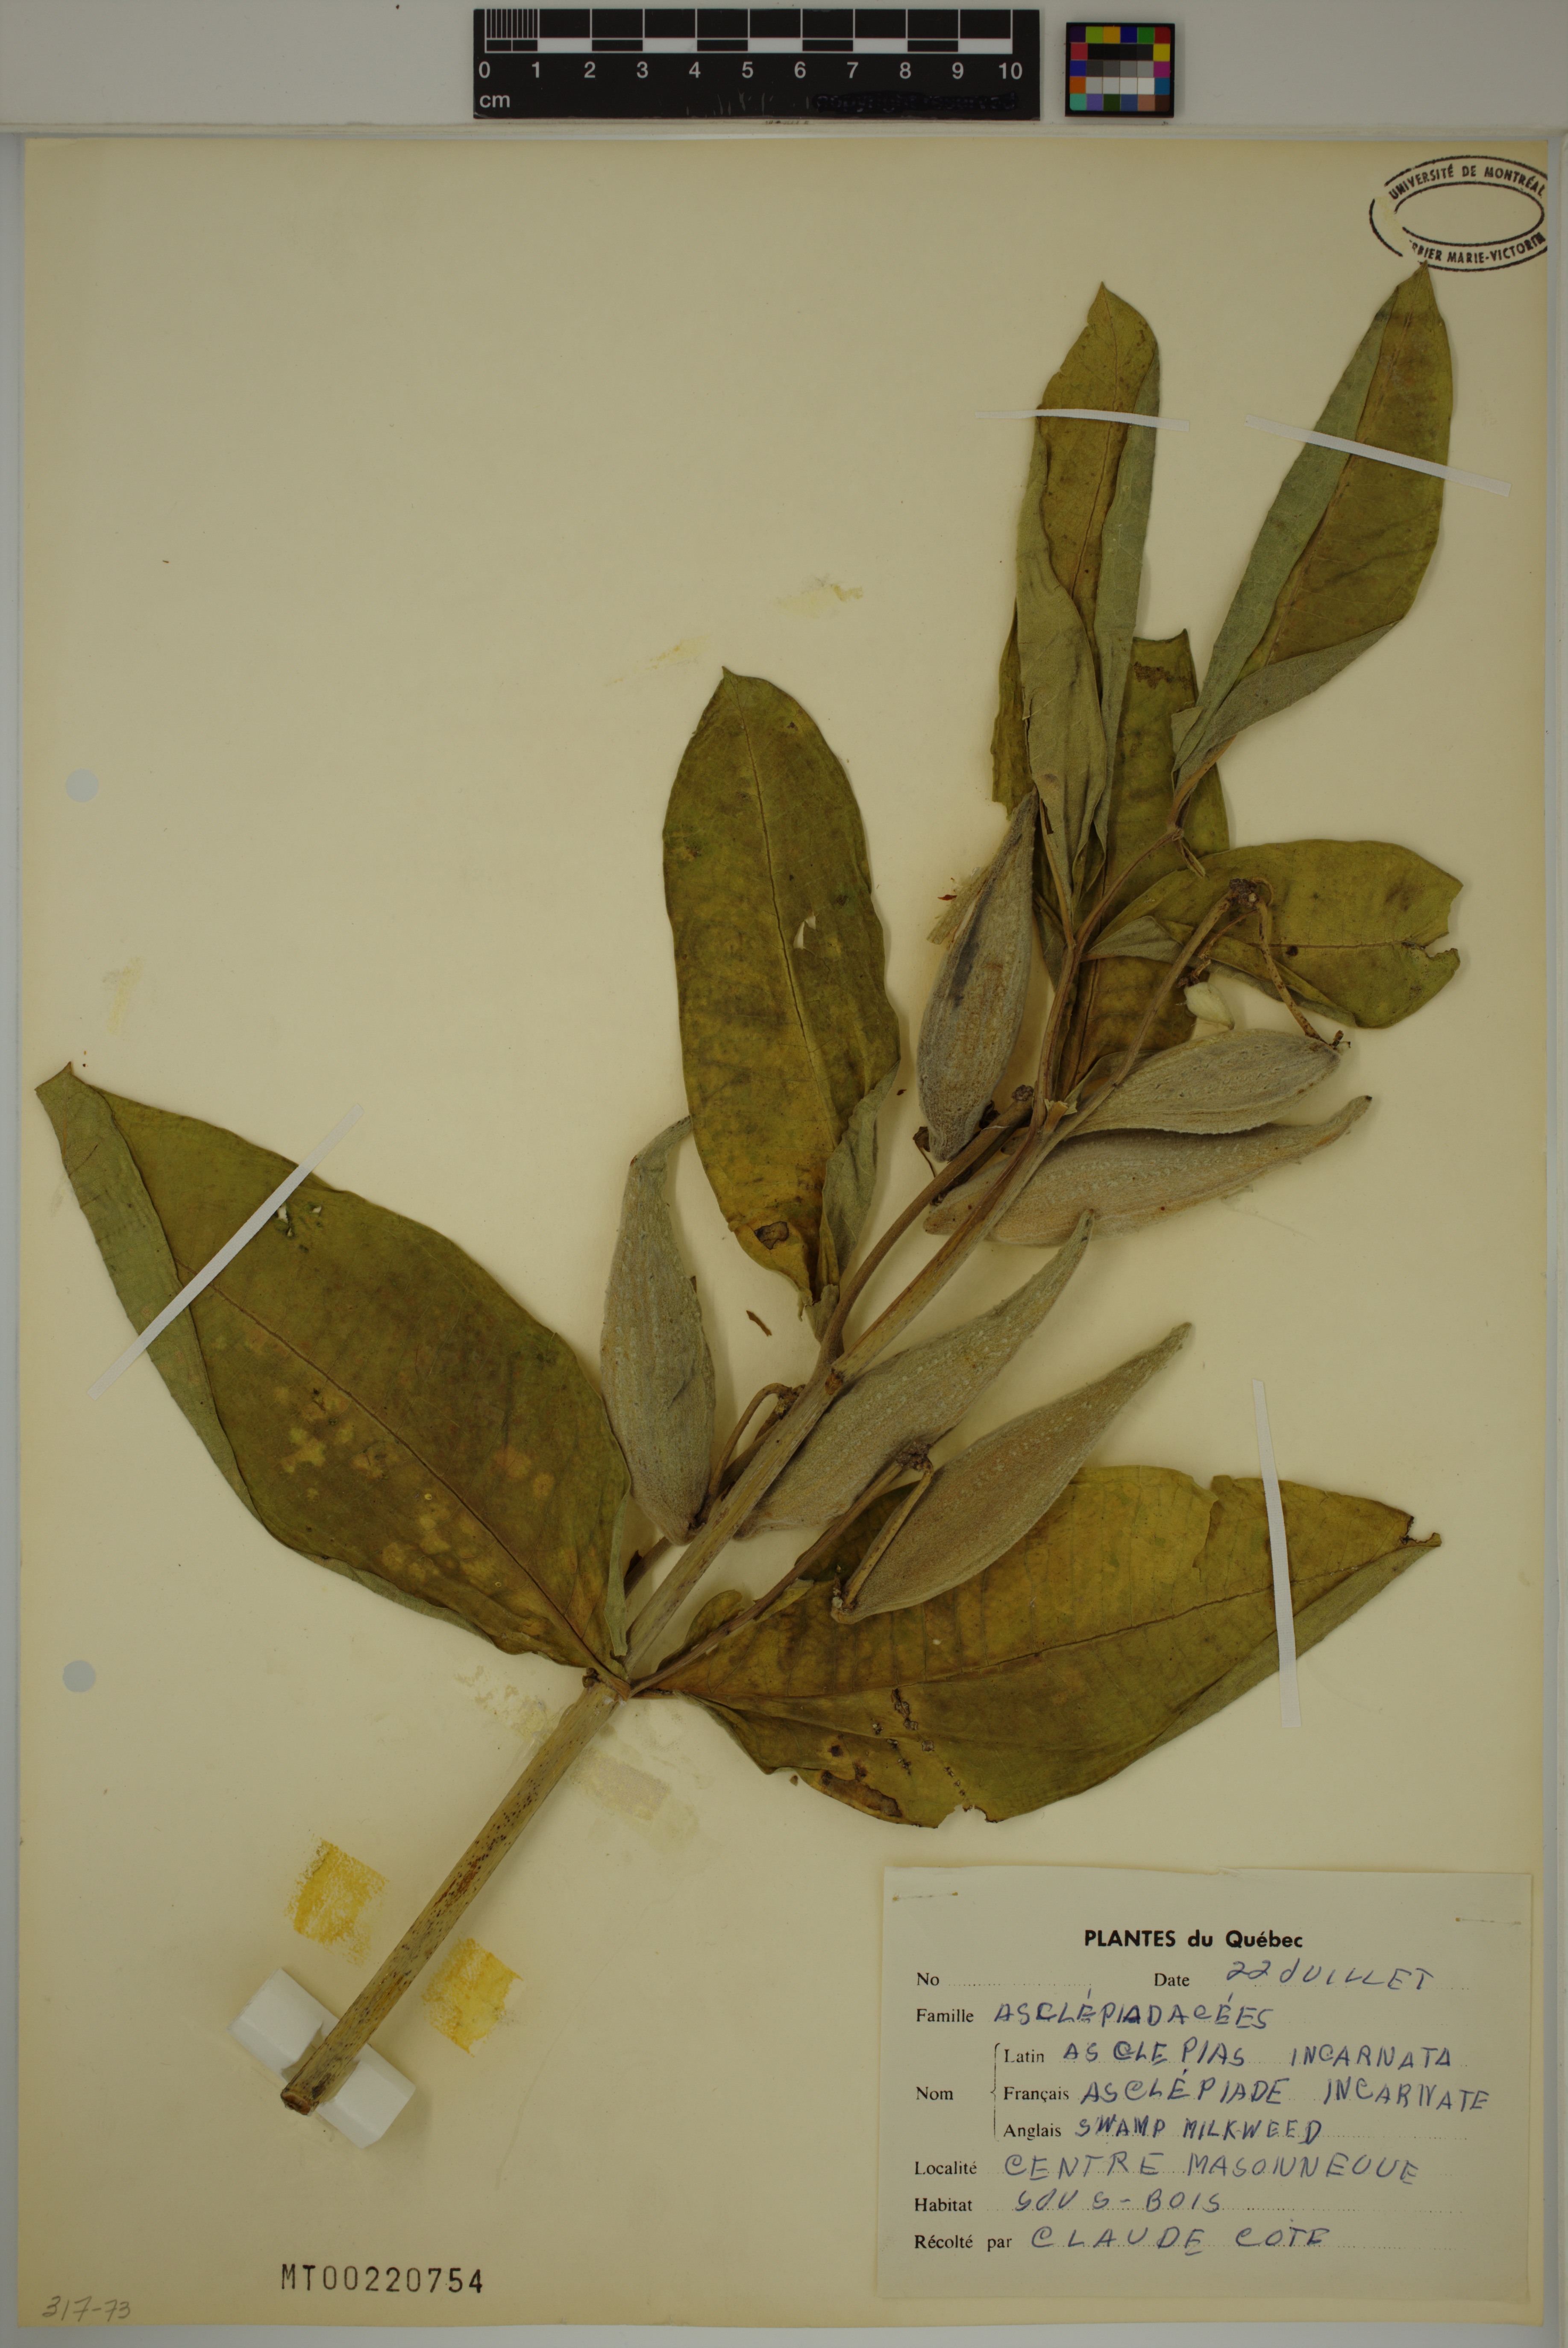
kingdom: Plantae
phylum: Tracheophyta
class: Magnoliopsida
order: Gentianales
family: Apocynaceae
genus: Asclepias
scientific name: Asclepias incarnata
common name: Swamp milkweed
